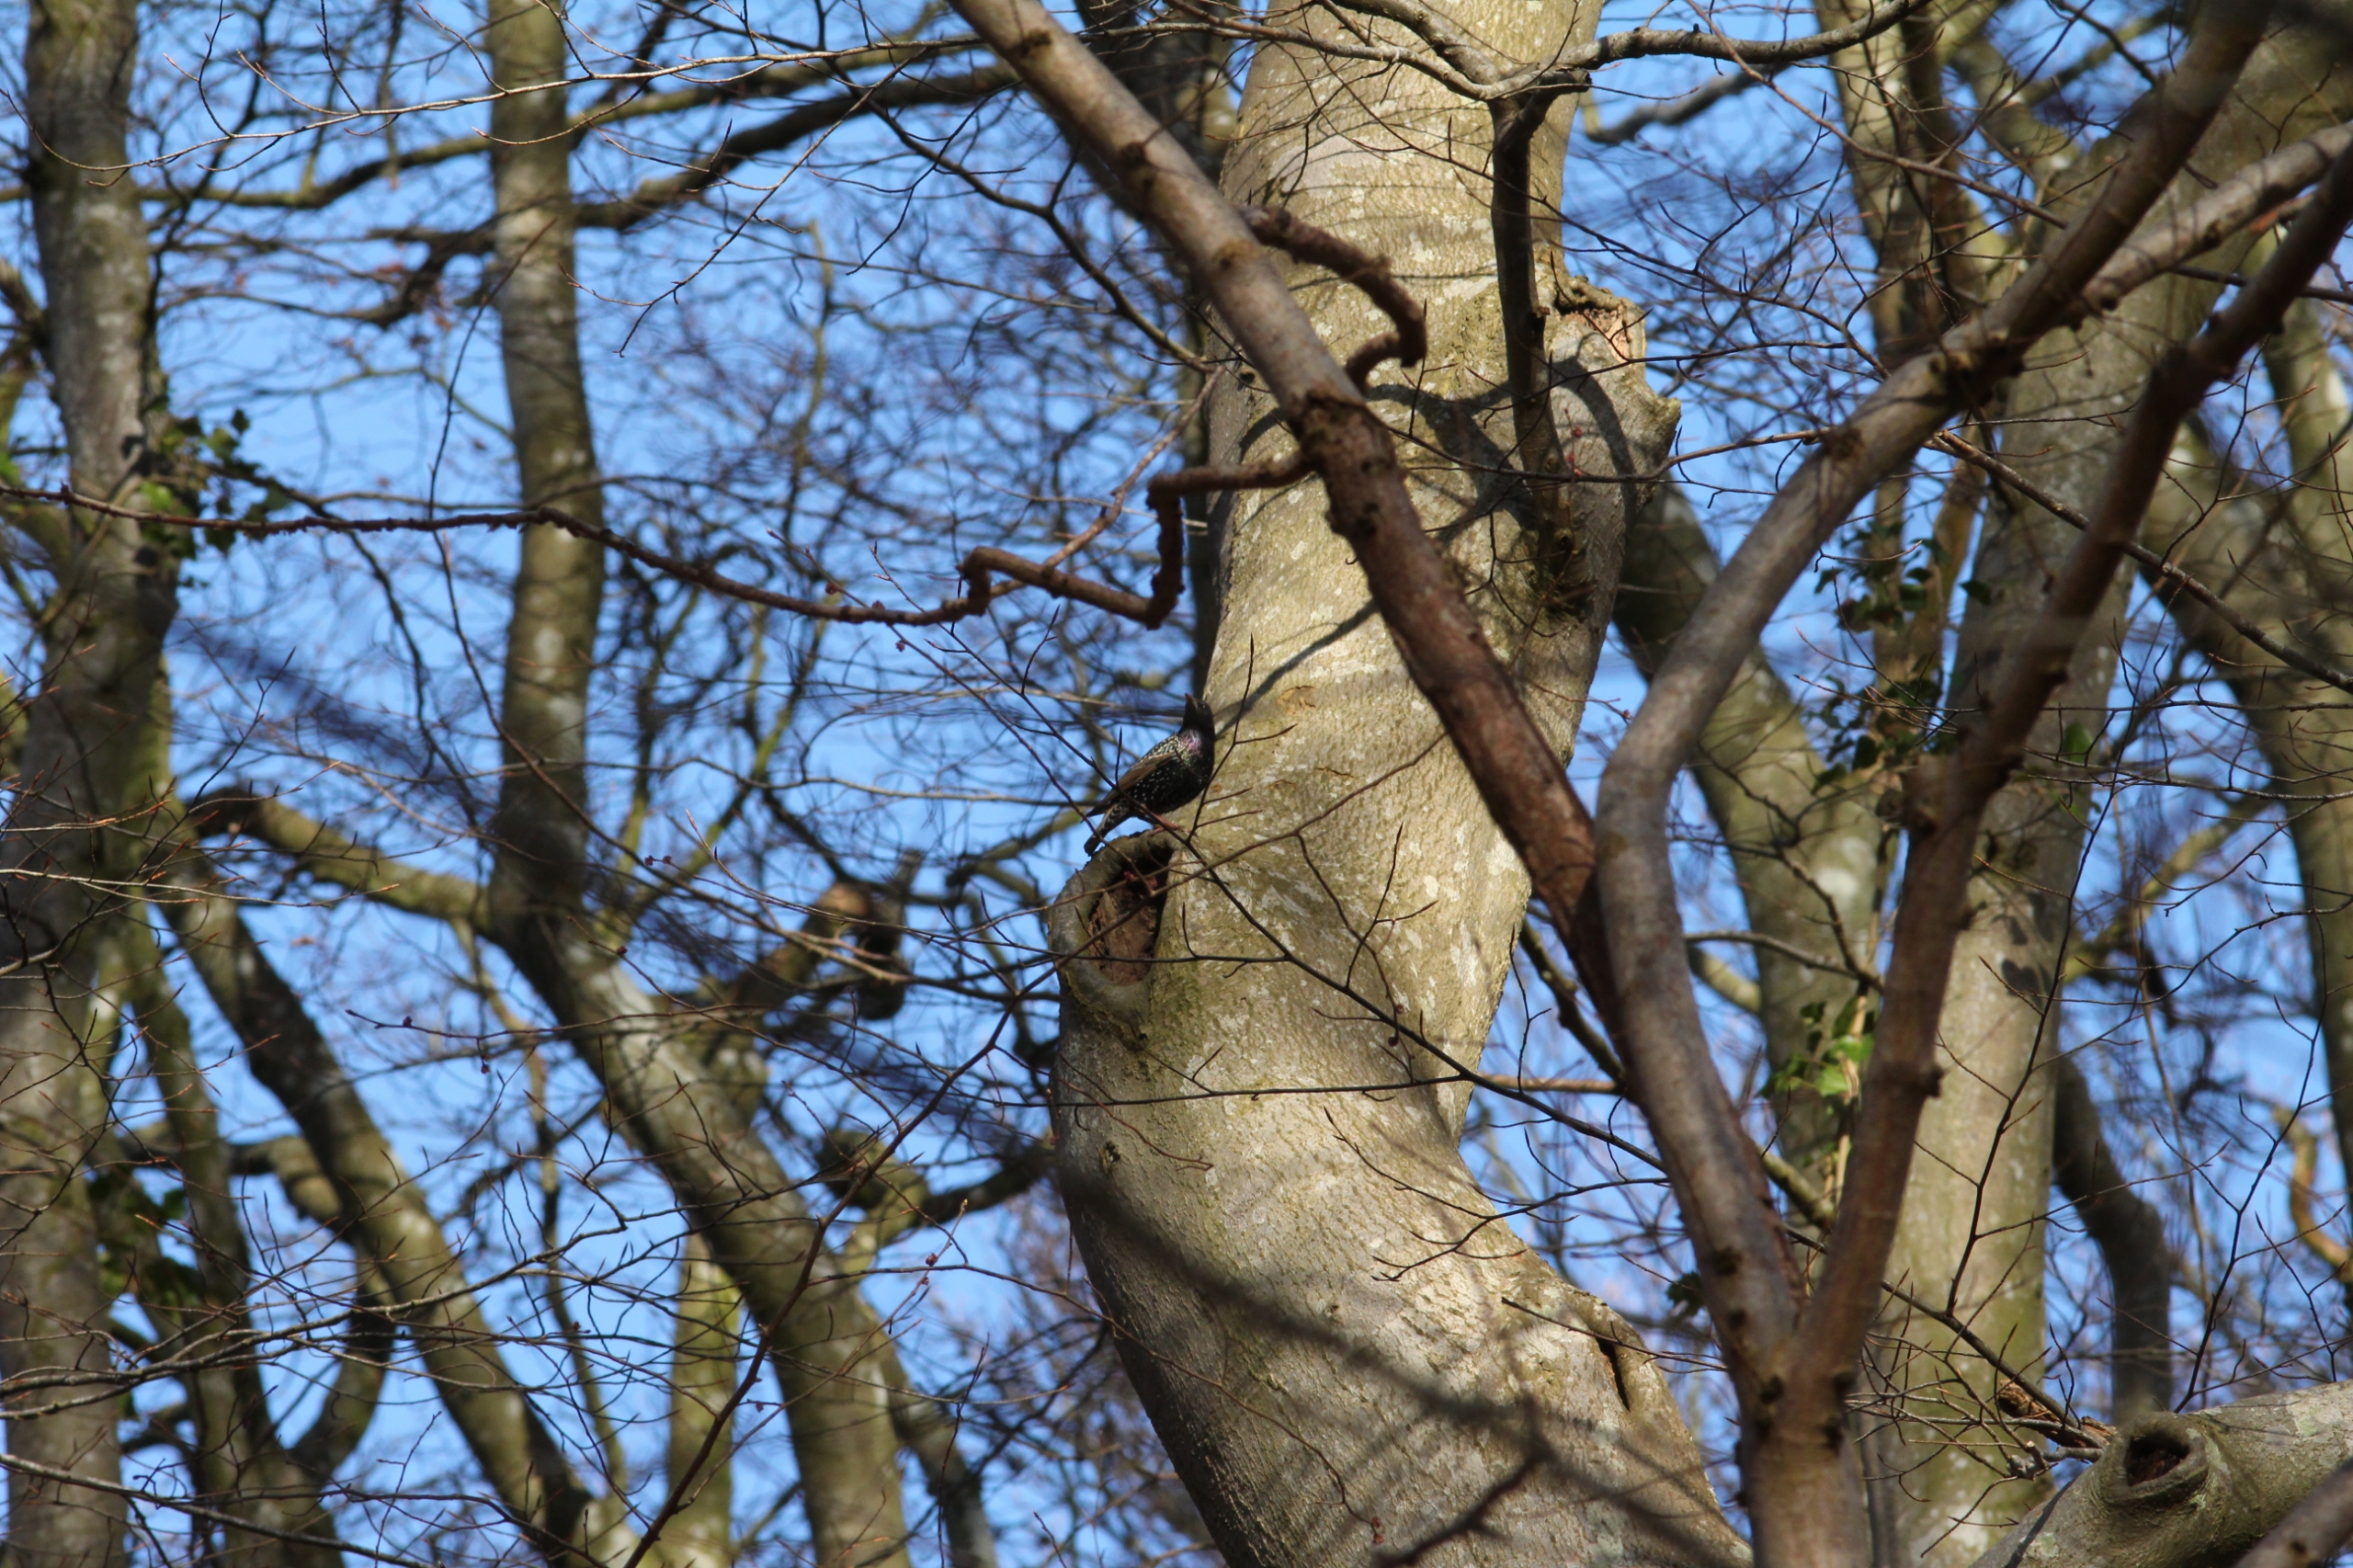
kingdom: Animalia
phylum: Chordata
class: Aves
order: Passeriformes
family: Sturnidae
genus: Sturnus
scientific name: Sturnus vulgaris
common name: Stær
